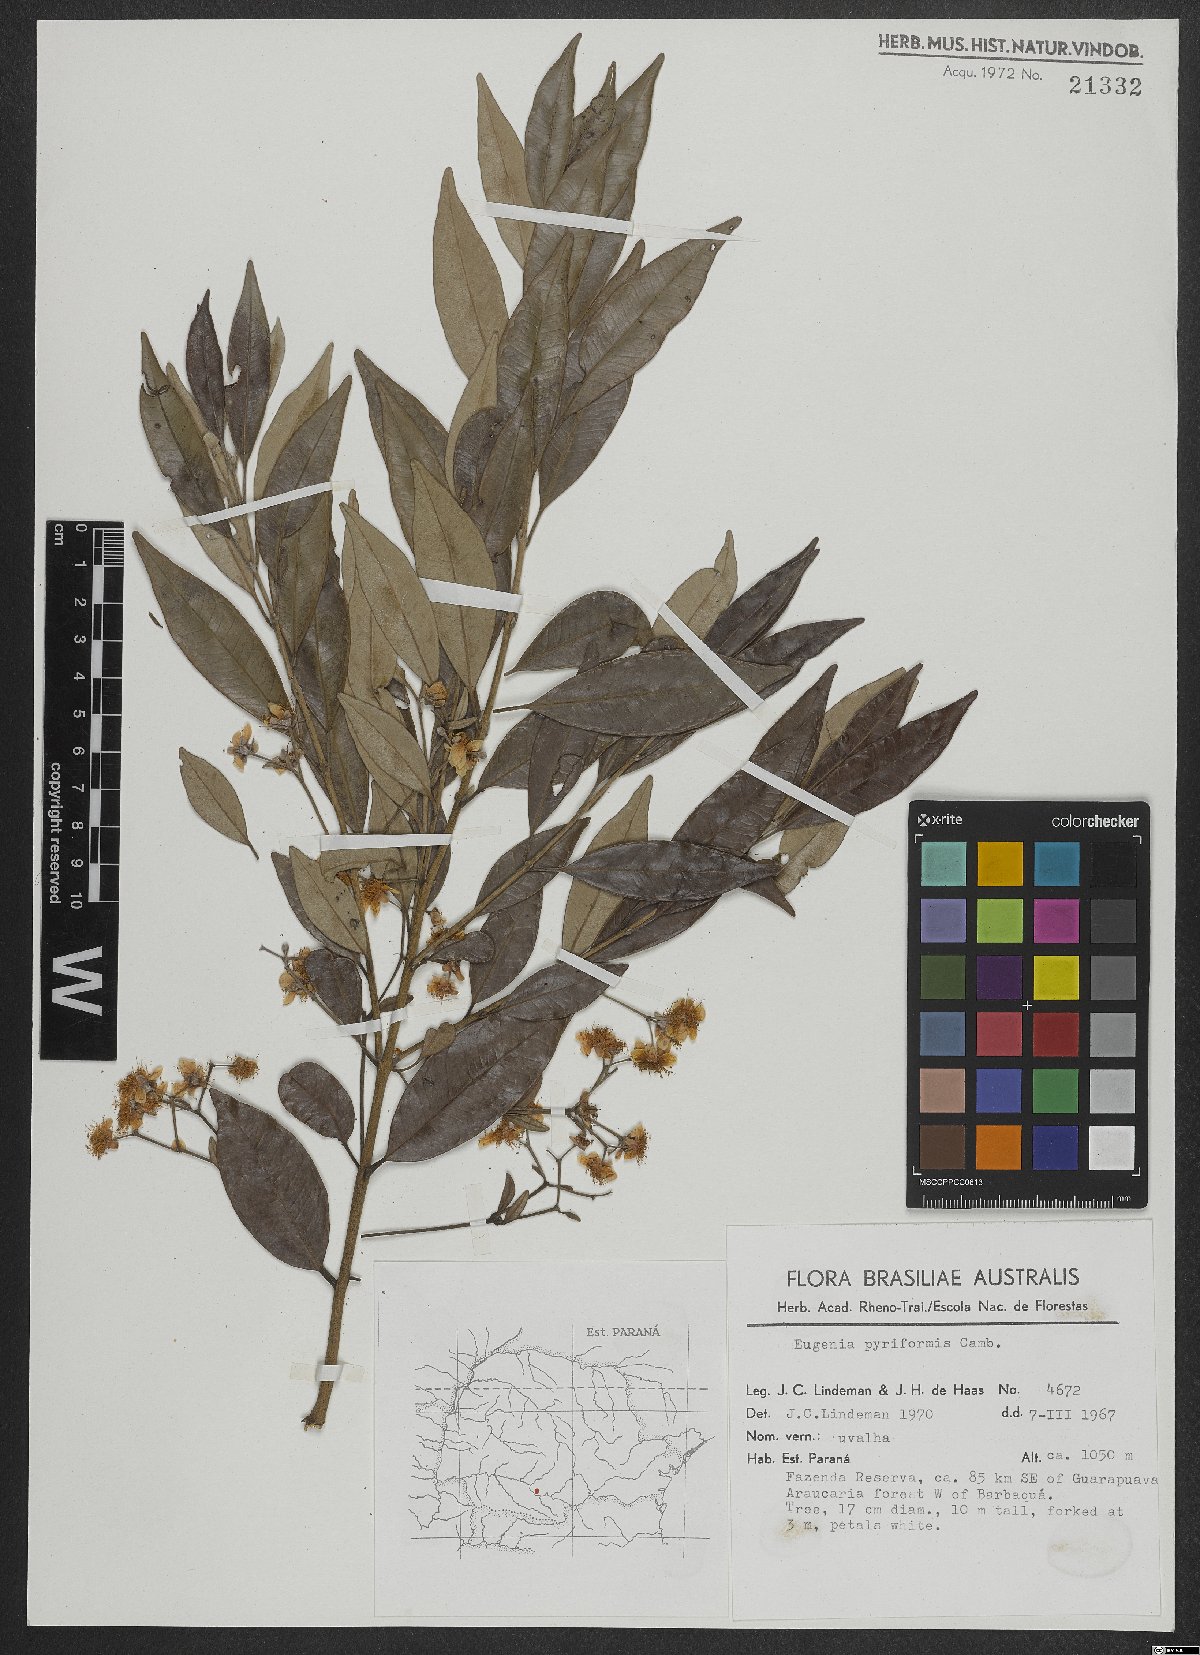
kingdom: Plantae
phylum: Tracheophyta
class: Magnoliopsida
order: Myrtales
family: Myrtaceae
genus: Eugenia
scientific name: Eugenia pyriformis
